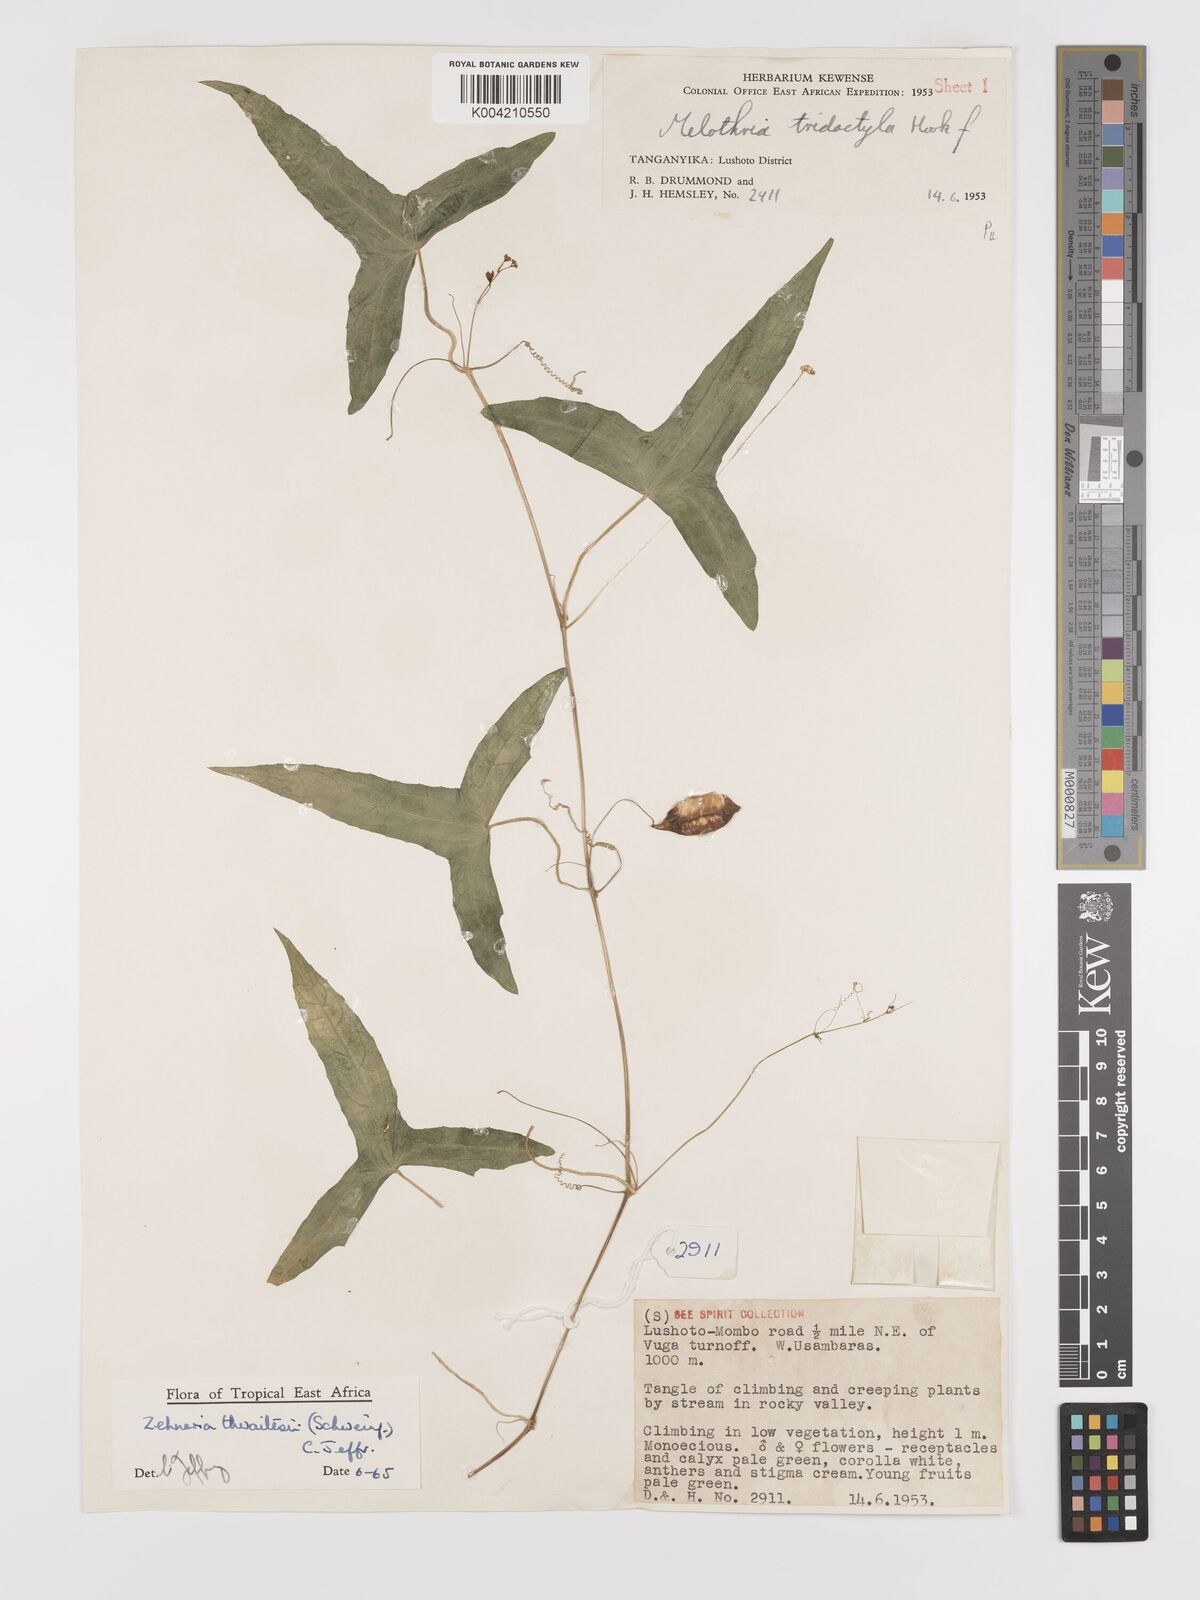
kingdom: Plantae
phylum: Tracheophyta
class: Magnoliopsida
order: Cucurbitales
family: Cucurbitaceae
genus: Zehneria
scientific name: Zehneria thwaitesii
